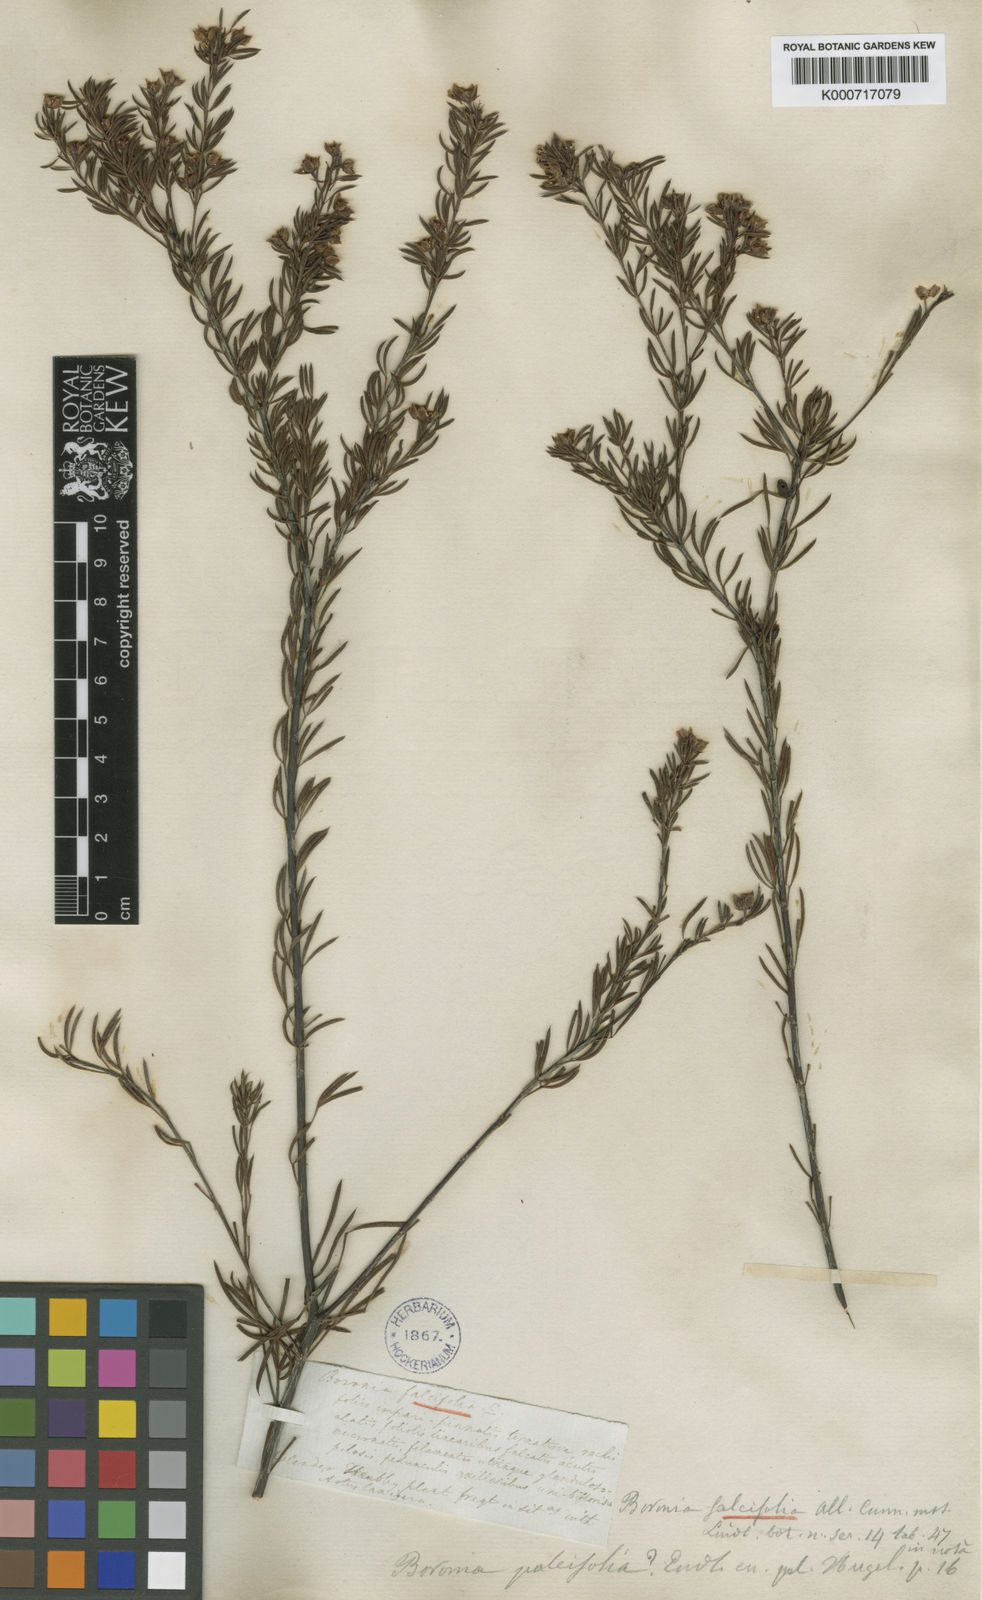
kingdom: Plantae
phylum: Tracheophyta
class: Magnoliopsida
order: Sapindales
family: Rutaceae
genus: Boronia
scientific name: Boronia
